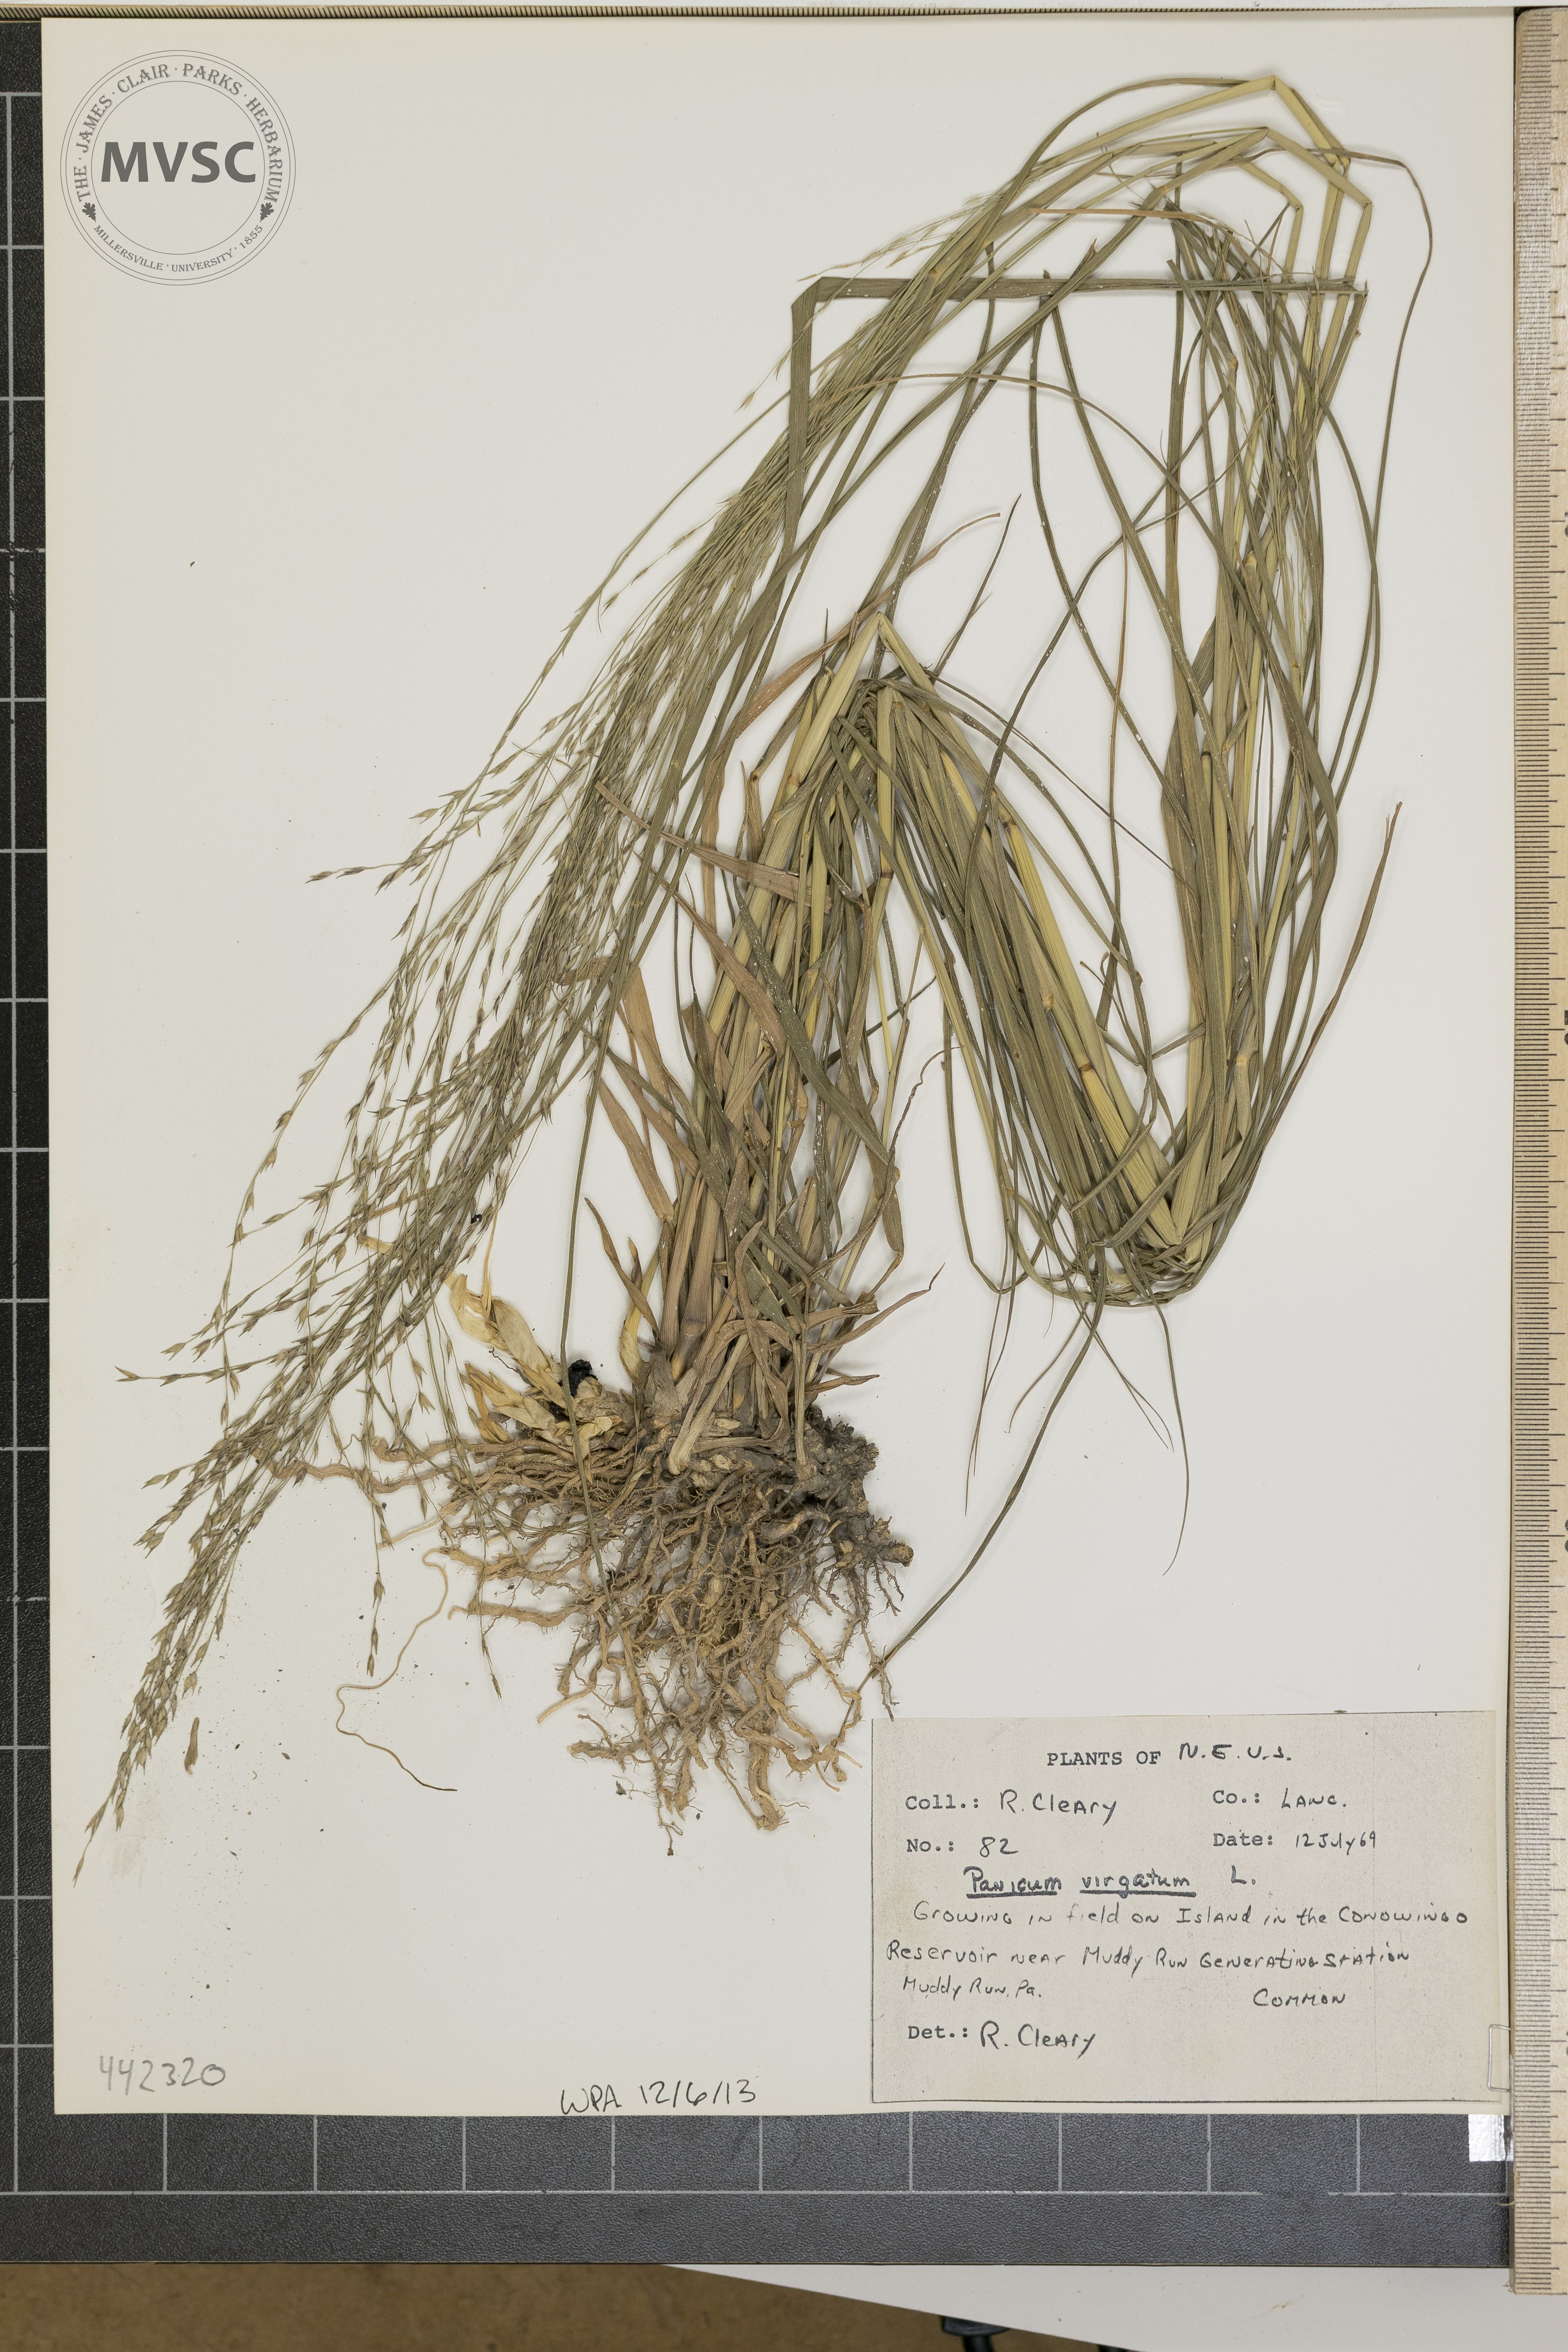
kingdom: Plantae
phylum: Tracheophyta
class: Liliopsida
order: Poales
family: Poaceae
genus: Panicum
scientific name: Panicum virgatum
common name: Switchgrass
